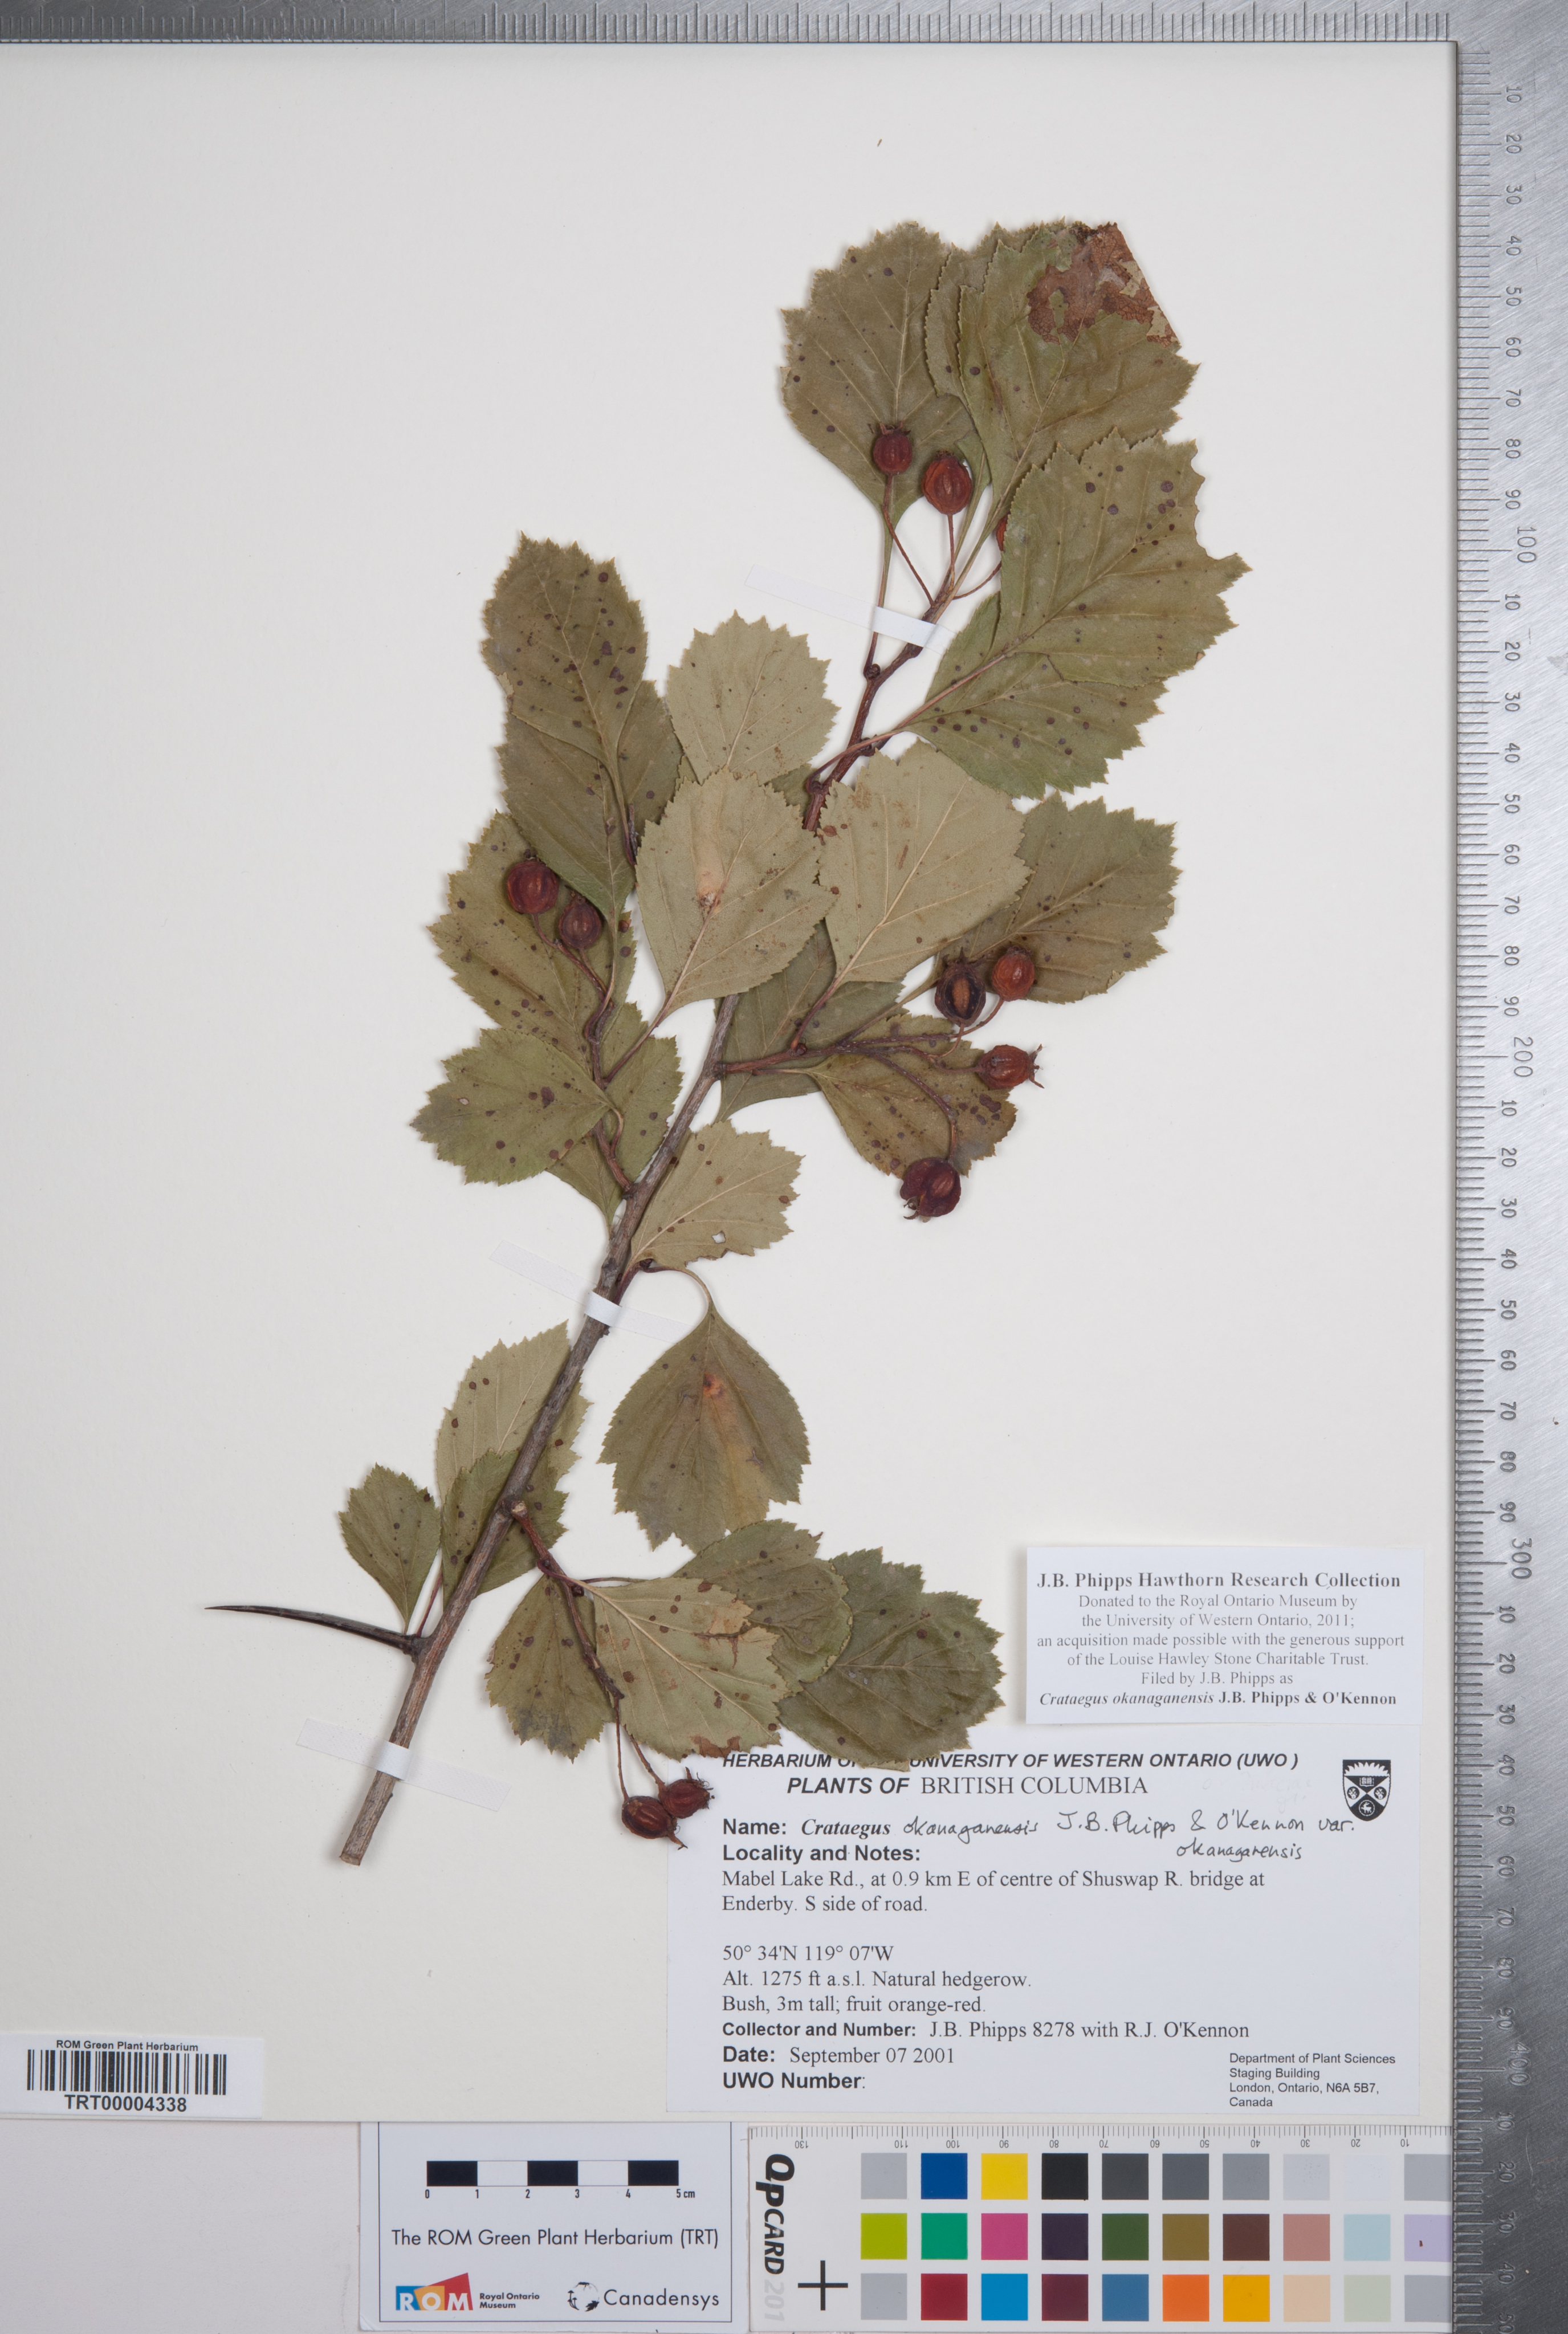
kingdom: Plantae
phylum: Tracheophyta
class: Magnoliopsida
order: Rosales
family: Rosaceae
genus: Crataegus
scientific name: Crataegus okanaganensis
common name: Okanagan valley hawthorn
